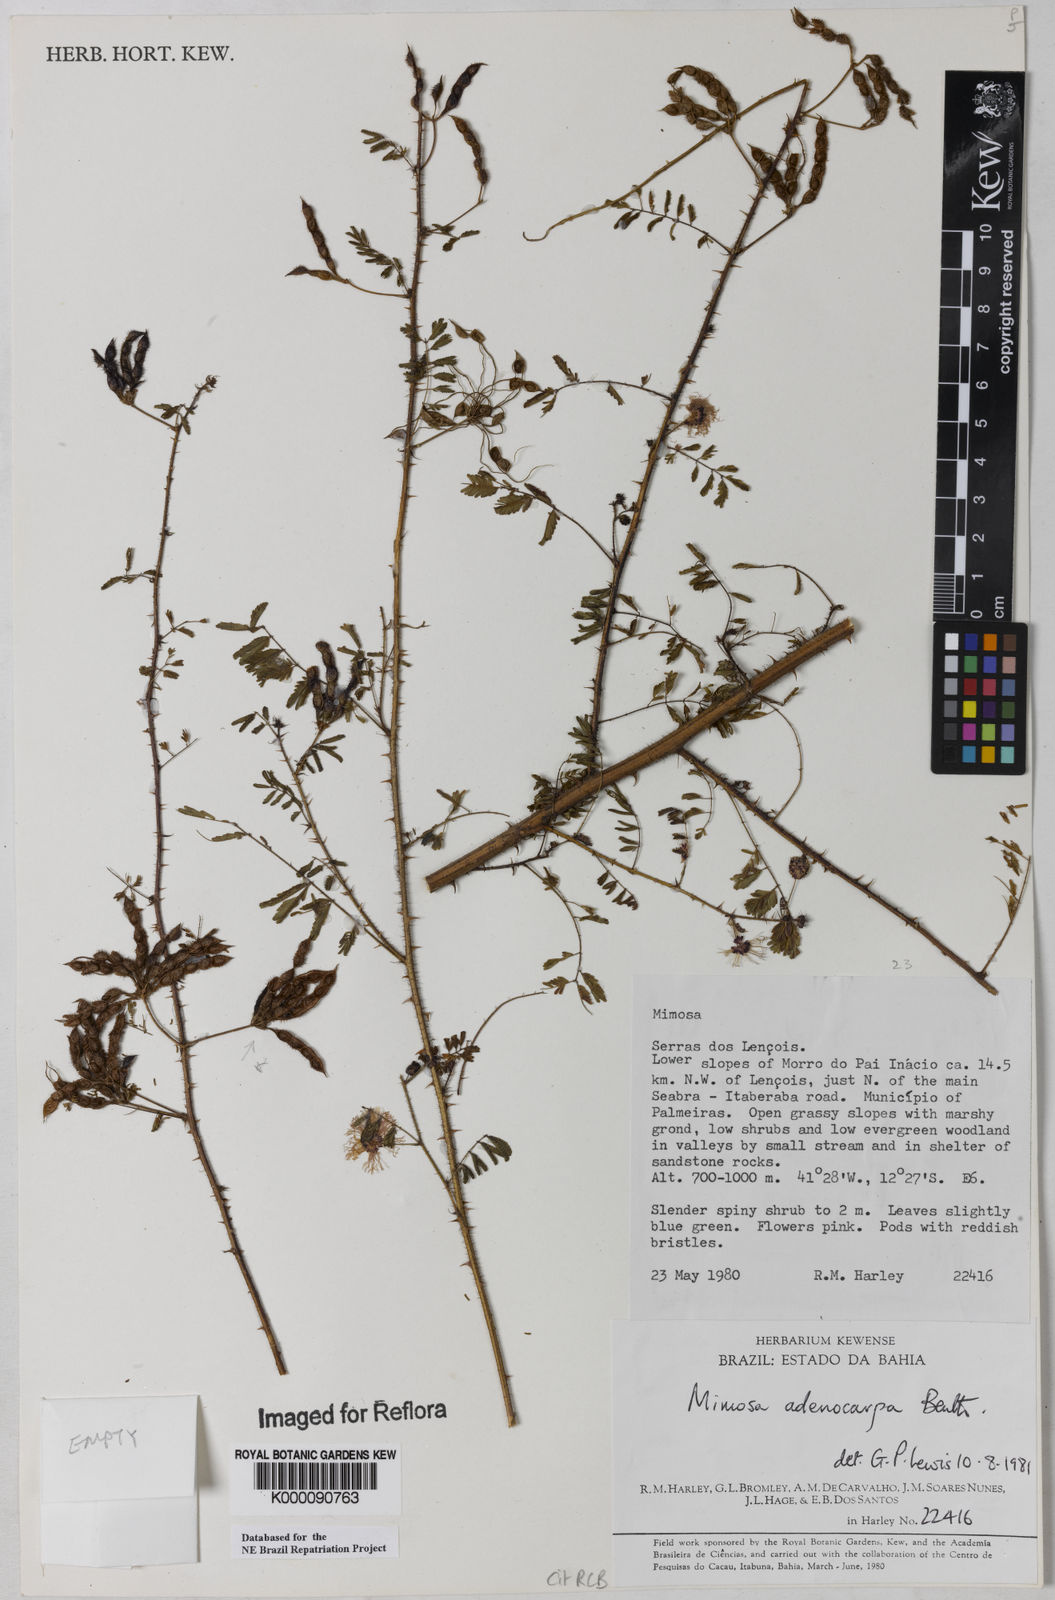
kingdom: Plantae
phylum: Tracheophyta
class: Magnoliopsida
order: Fabales
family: Fabaceae
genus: Mimosa
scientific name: Mimosa adenocarpa
